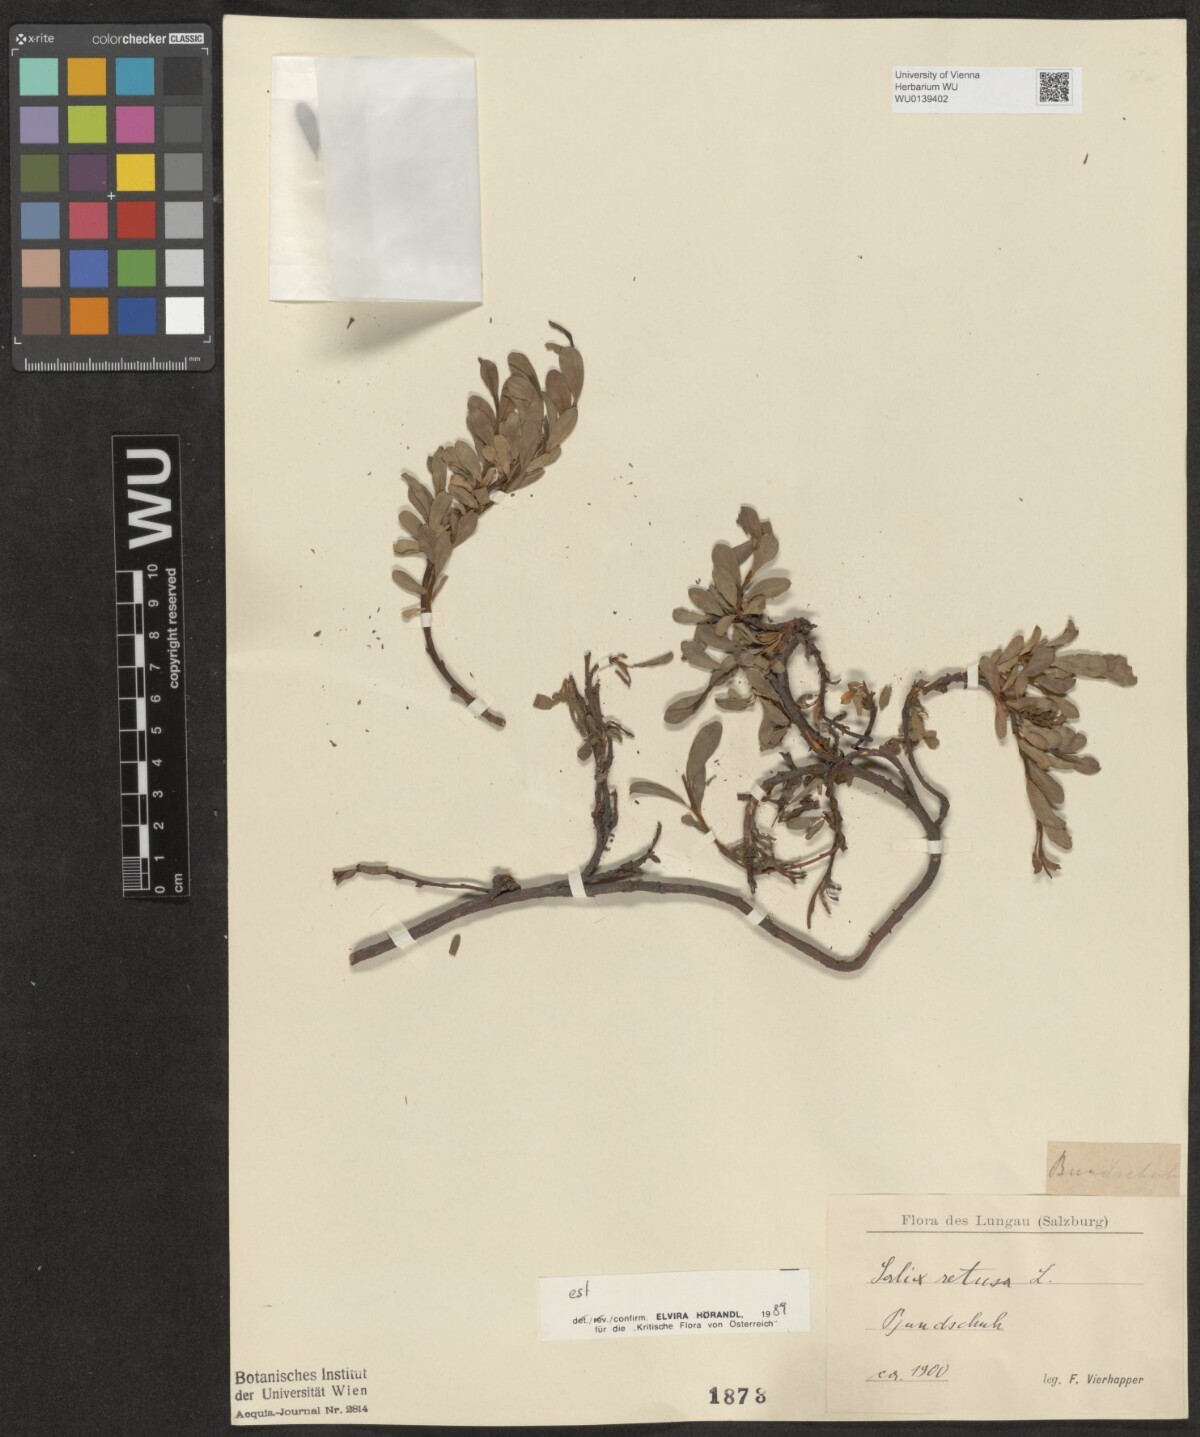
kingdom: Plantae
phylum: Tracheophyta
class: Magnoliopsida
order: Malpighiales
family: Salicaceae
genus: Salix
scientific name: Salix retusa
